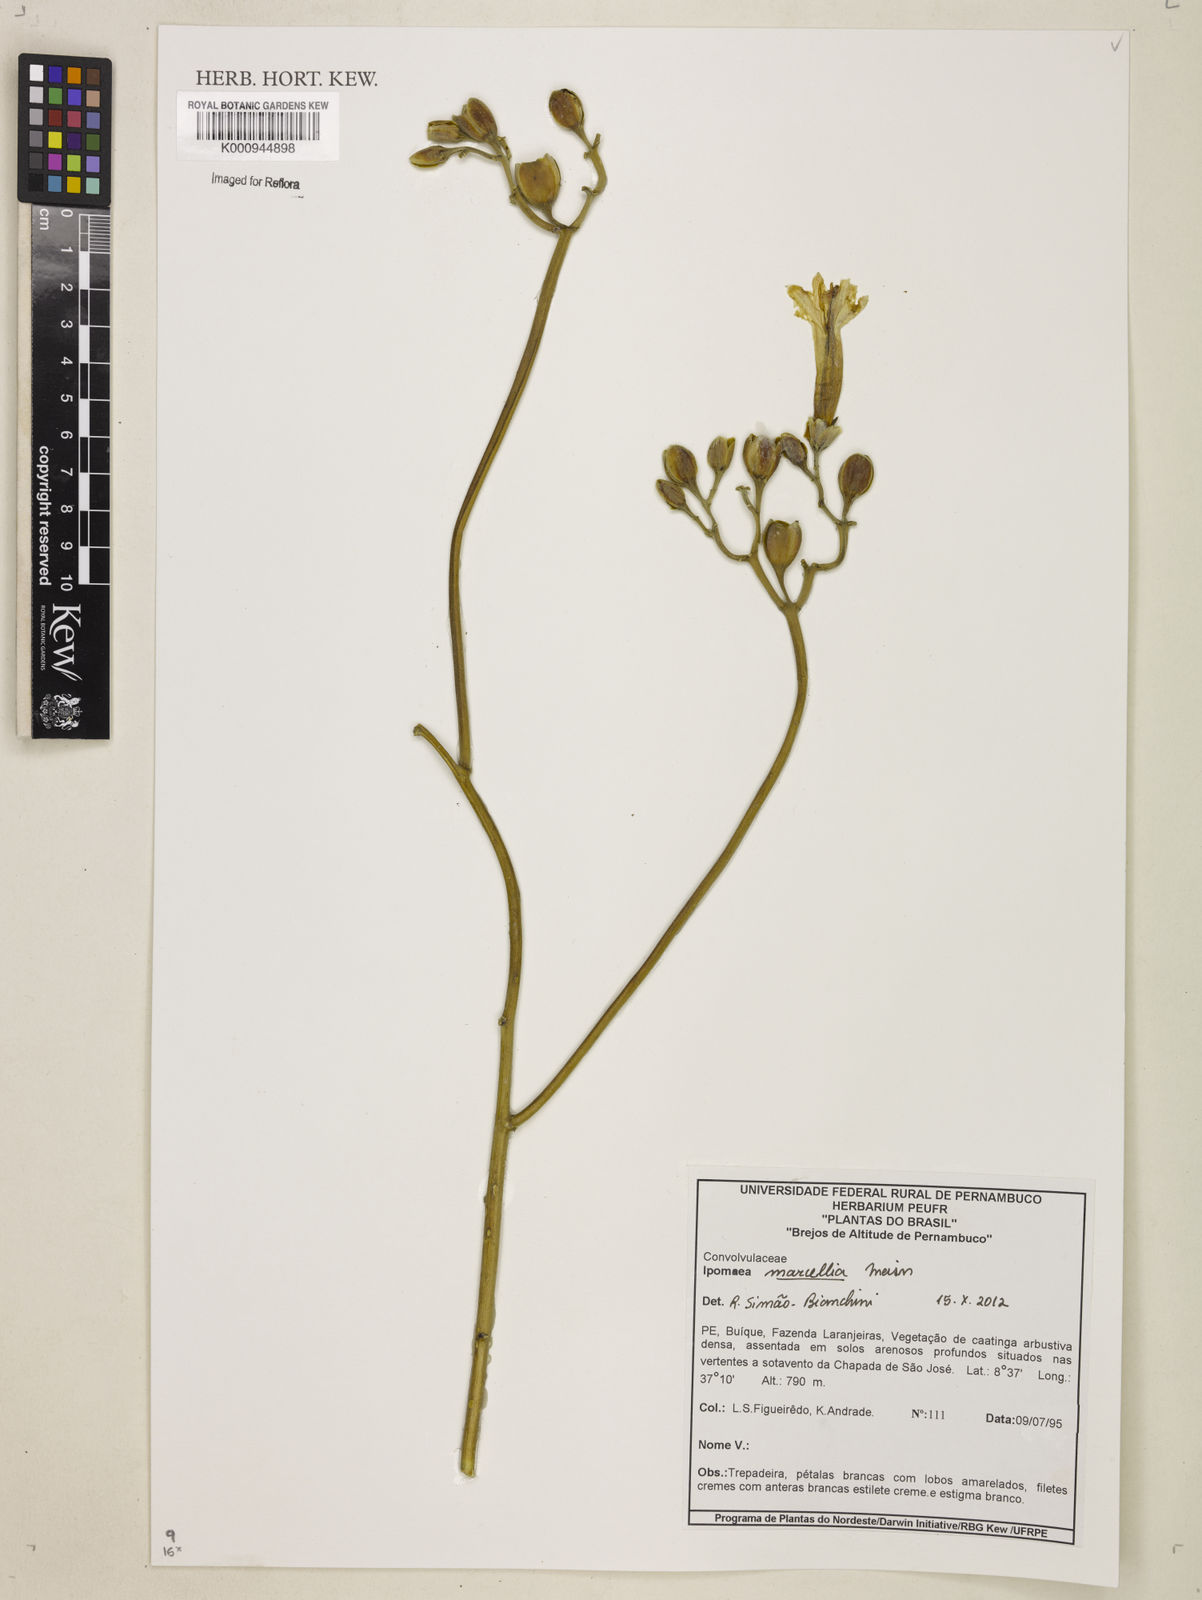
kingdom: Plantae
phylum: Tracheophyta
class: Magnoliopsida
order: Solanales
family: Convolvulaceae
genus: Ipomoea
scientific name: Ipomoea marcellia
